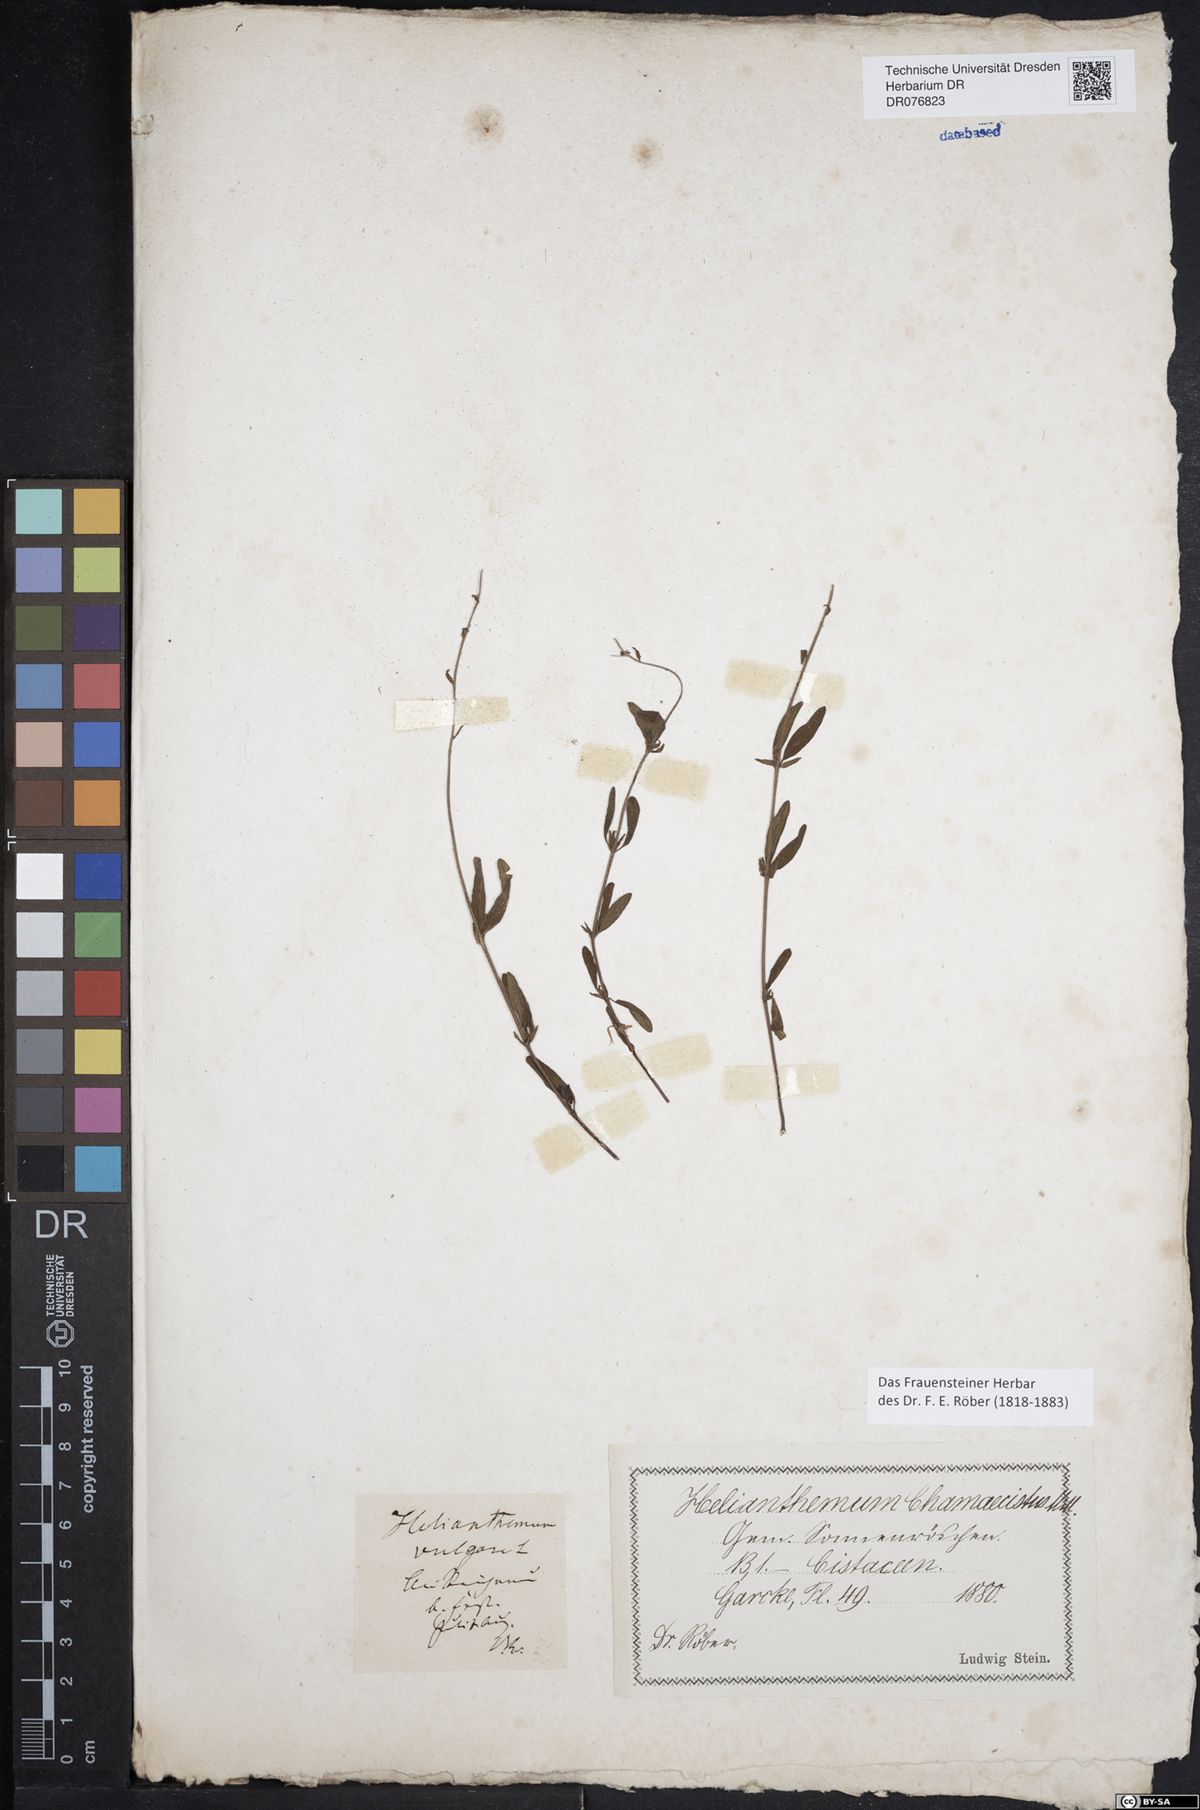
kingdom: Plantae
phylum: Tracheophyta
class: Magnoliopsida
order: Malvales
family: Cistaceae
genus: Helianthemum
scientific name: Helianthemum
